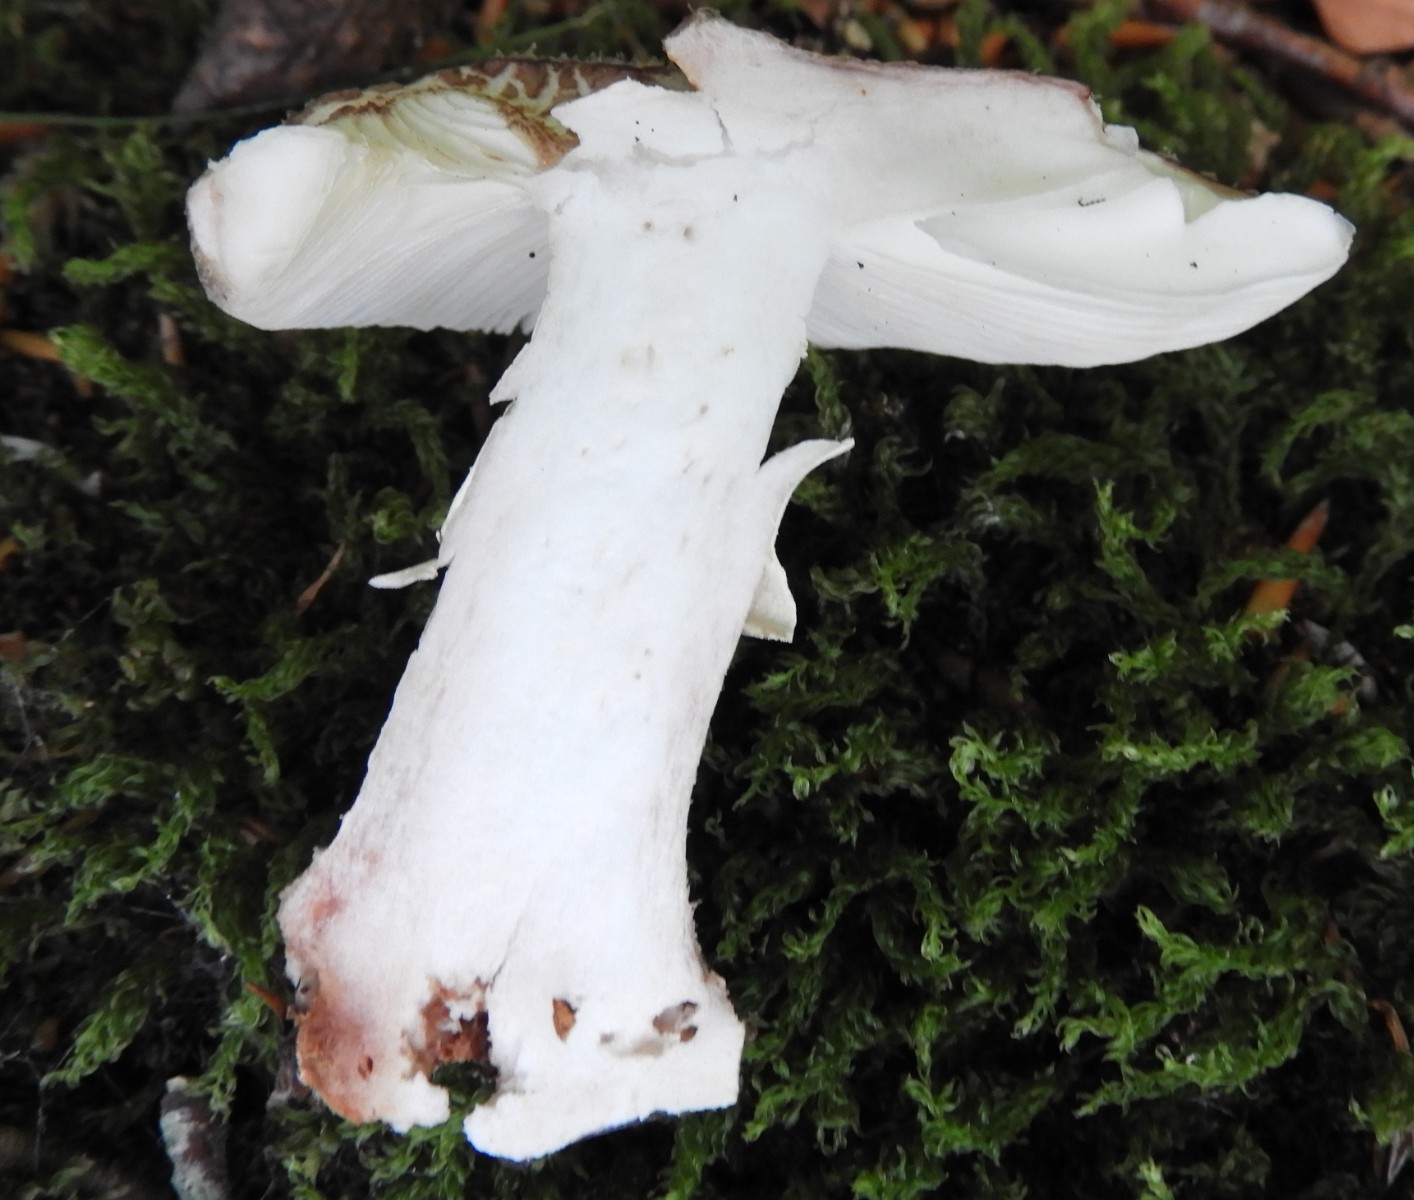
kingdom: Fungi
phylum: Basidiomycota
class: Agaricomycetes
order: Agaricales
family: Amanitaceae
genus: Amanita
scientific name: Amanita rubescens
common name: rødmende fluesvamp
